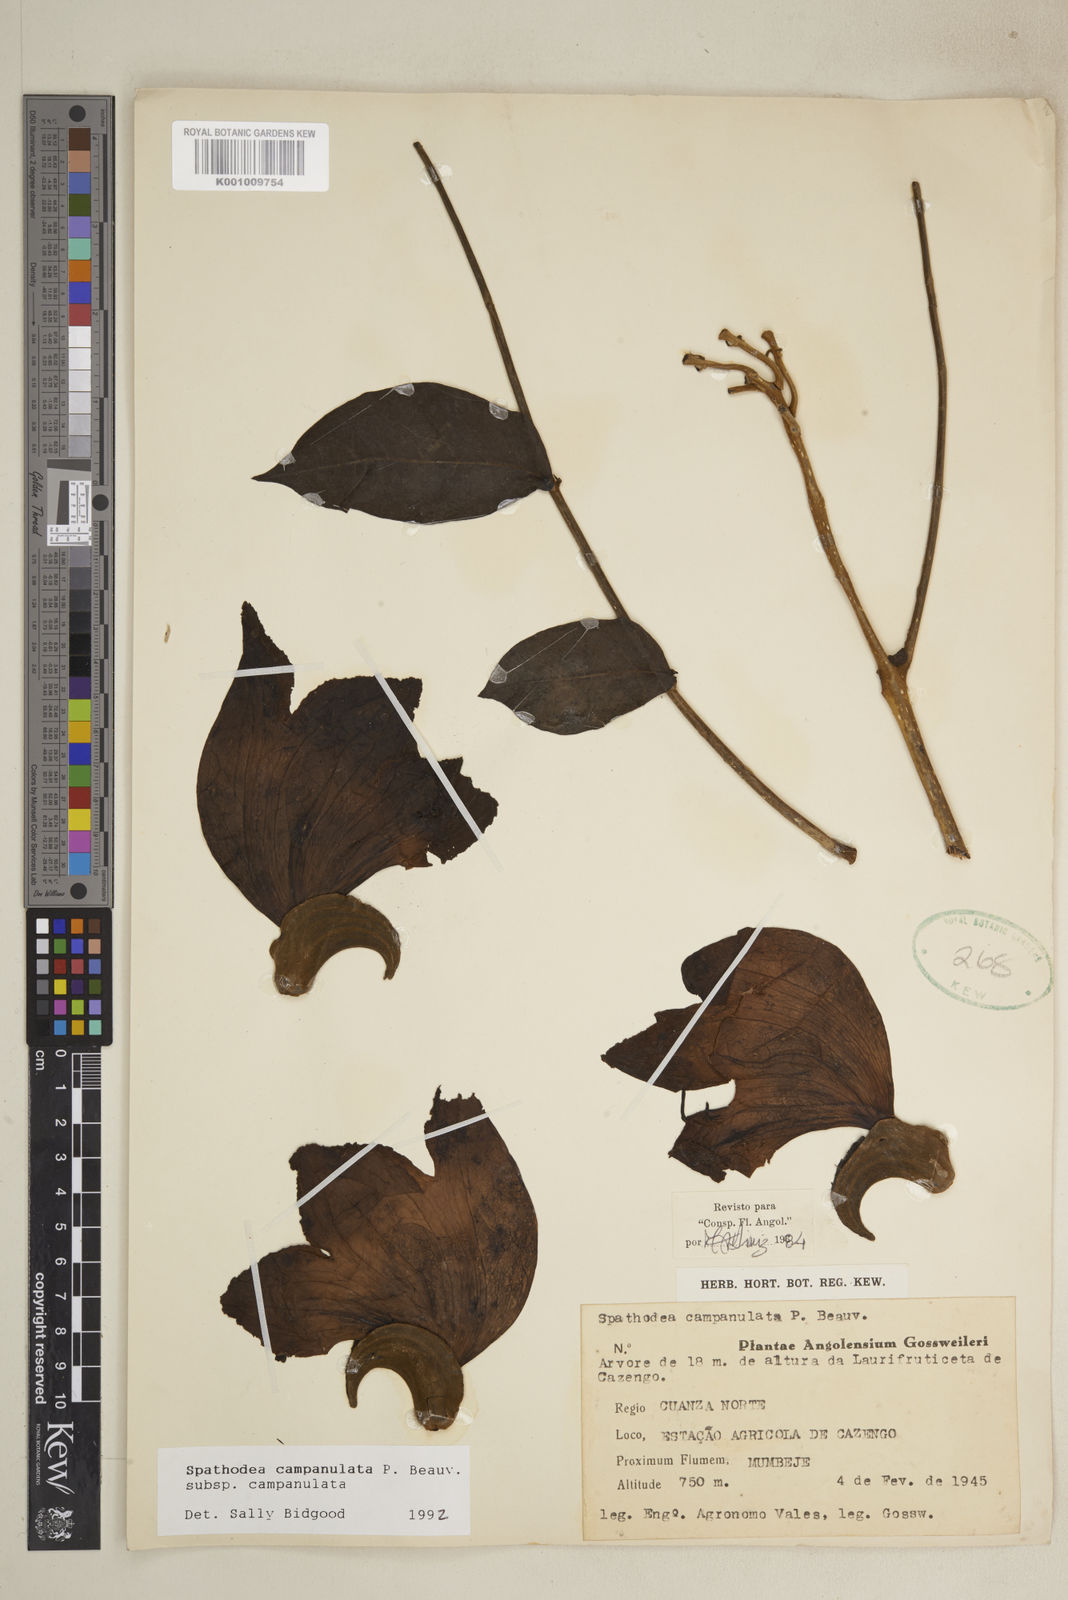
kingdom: Plantae
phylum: Tracheophyta
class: Magnoliopsida
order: Lamiales
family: Bignoniaceae
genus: Spathodea
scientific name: Spathodea campanulata
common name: African tuliptree
